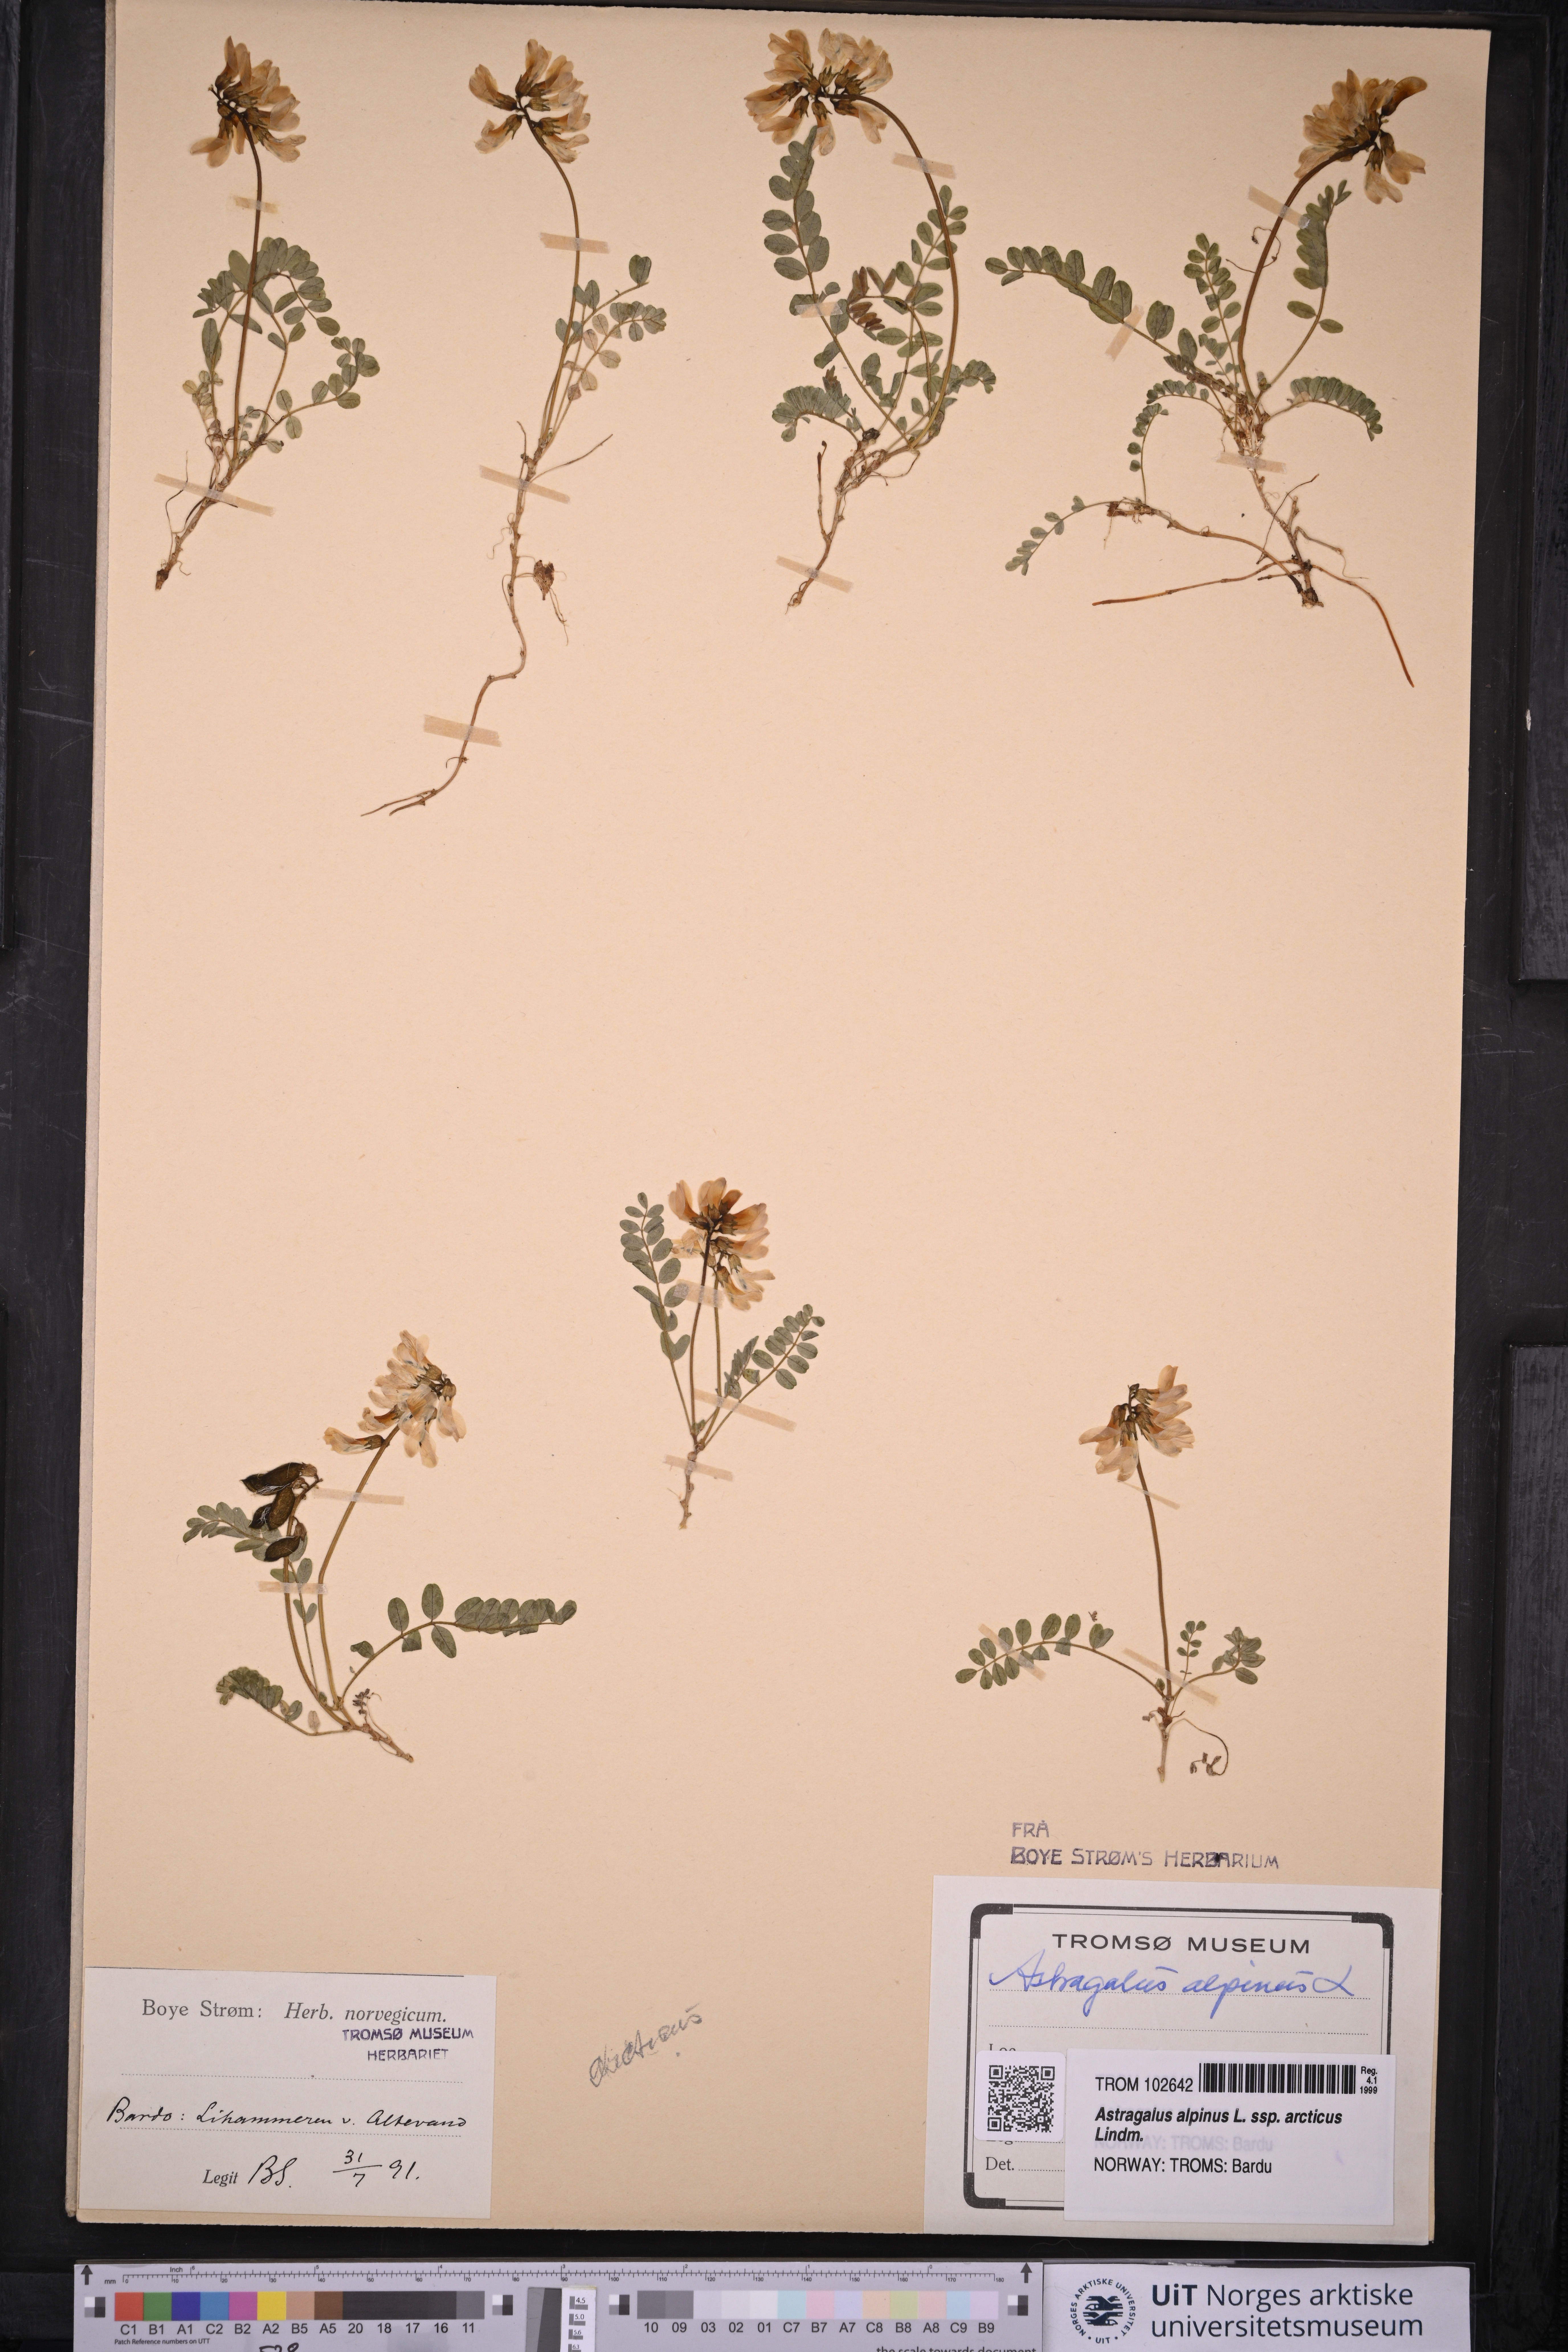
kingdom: Plantae
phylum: Tracheophyta
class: Magnoliopsida
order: Fabales
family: Fabaceae
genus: Astragalus
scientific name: Astragalus norvegicus
